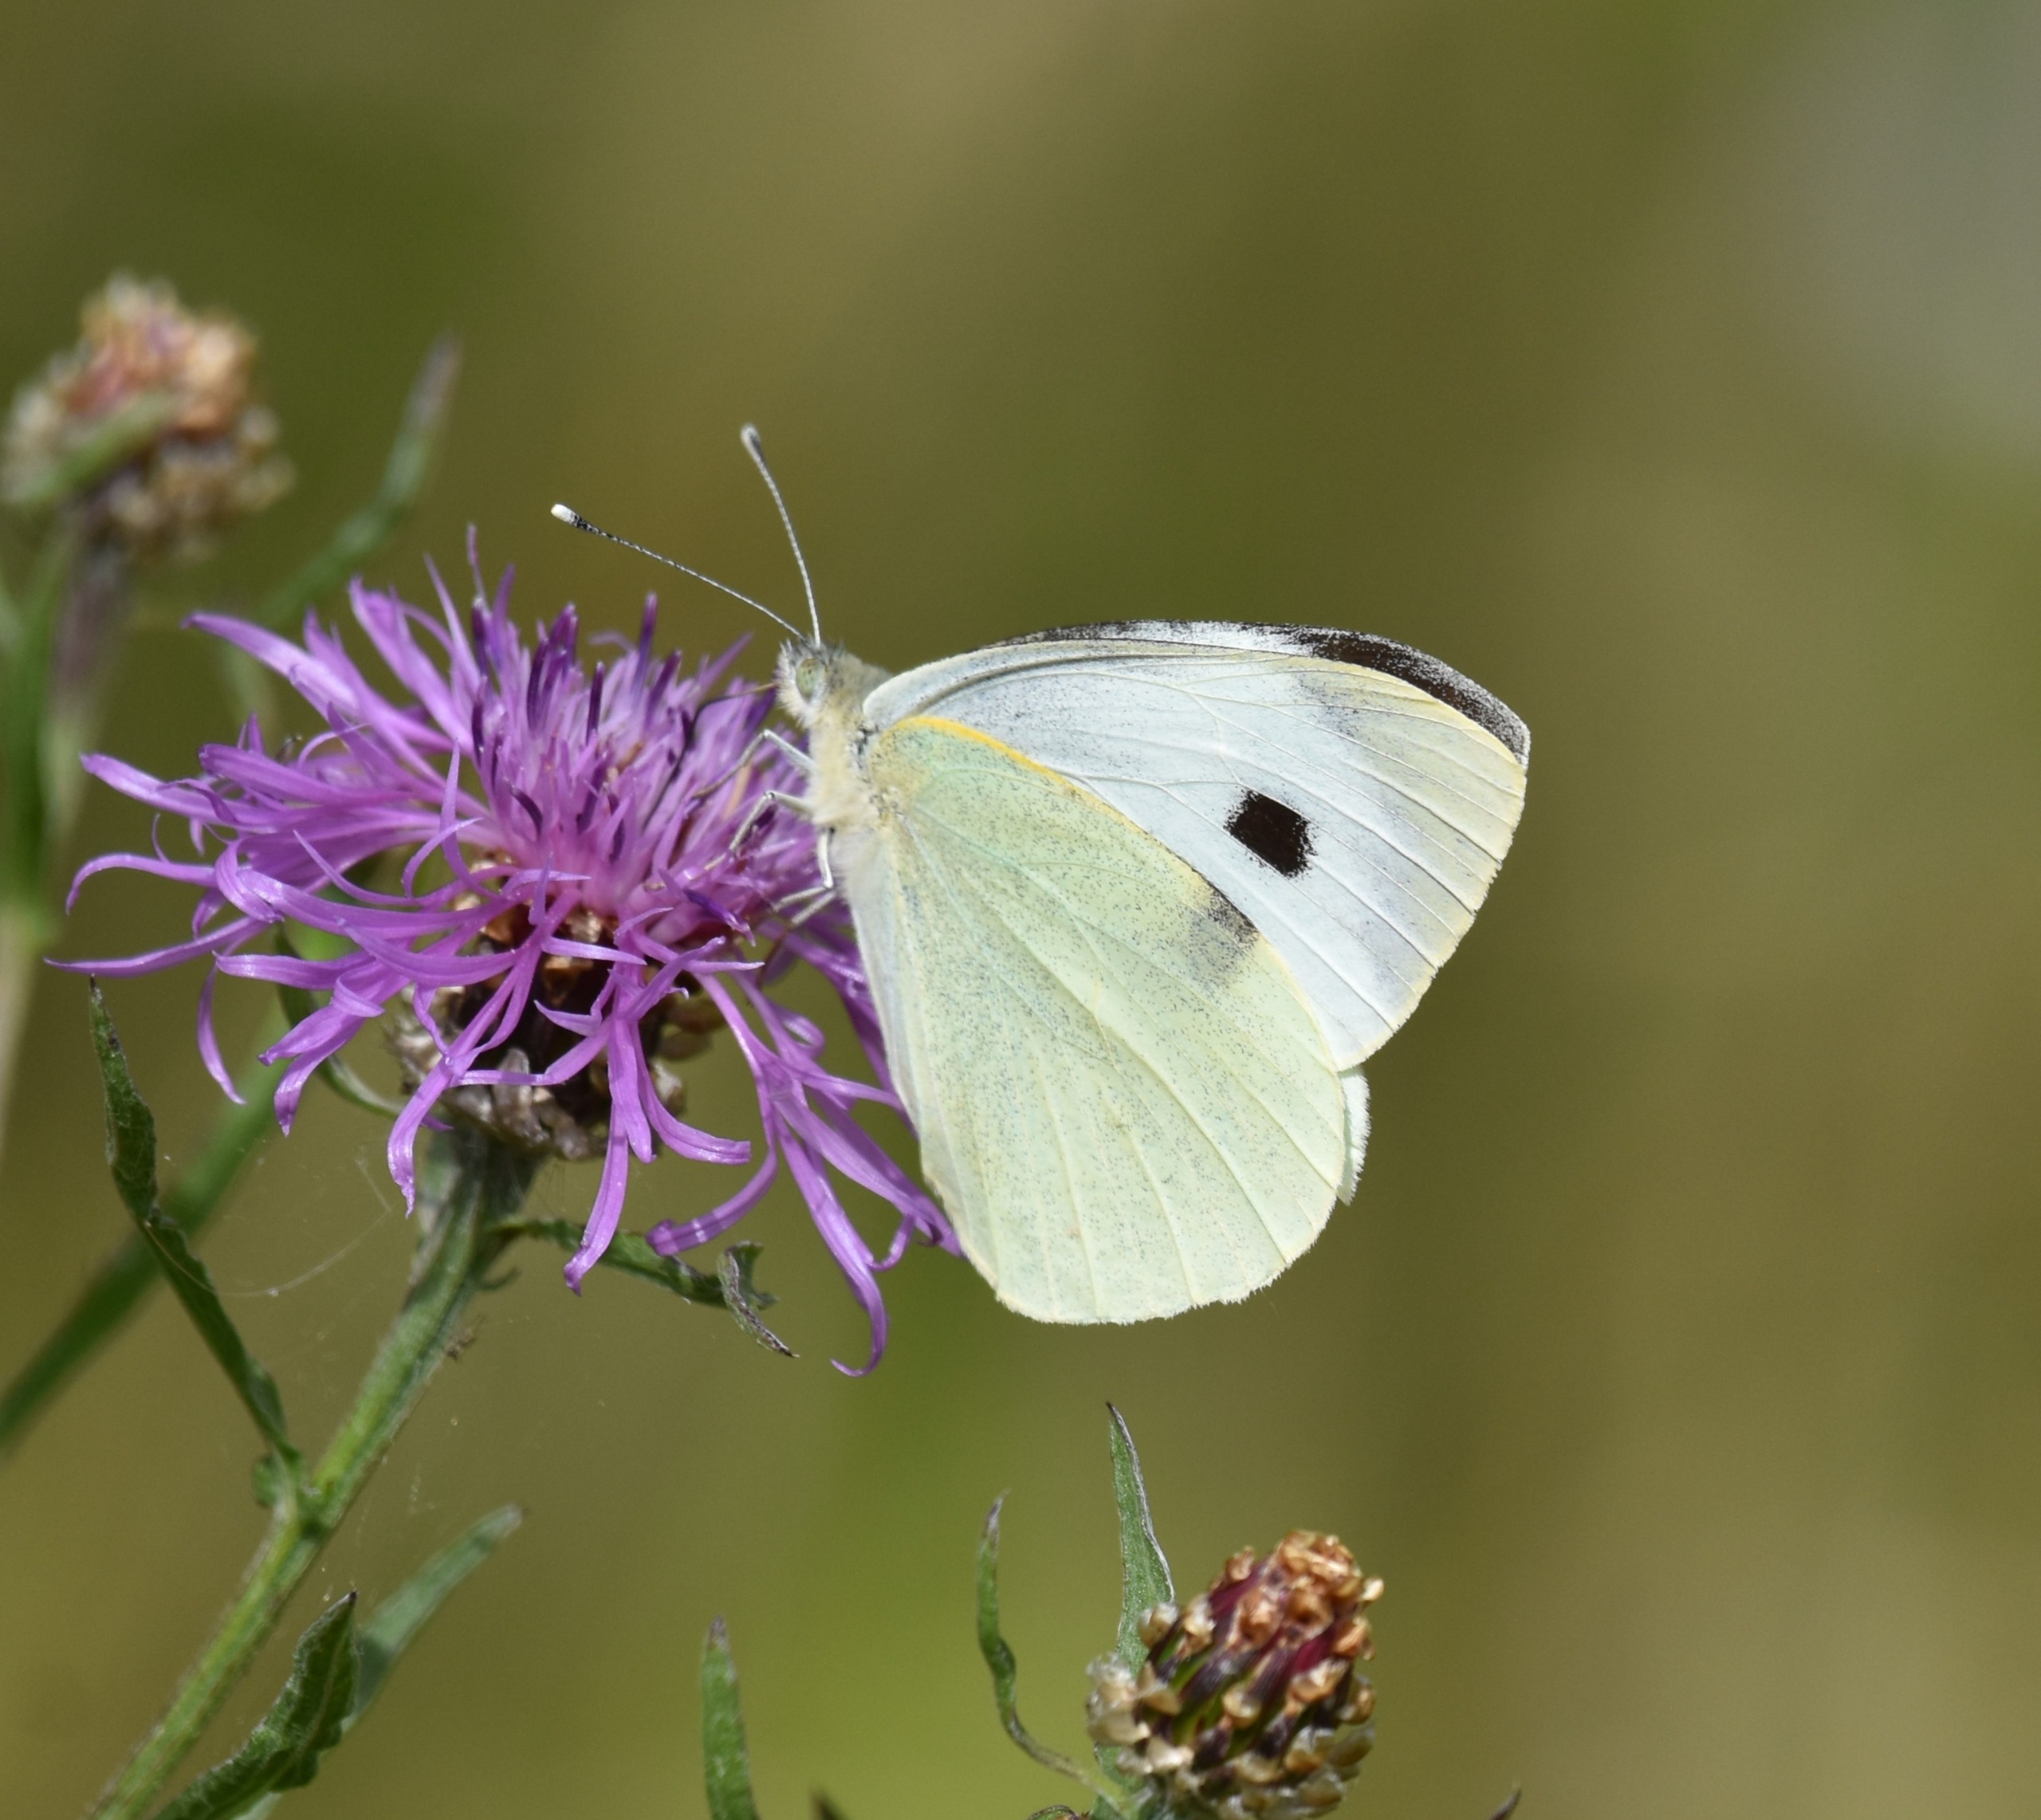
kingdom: Animalia
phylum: Arthropoda
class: Insecta
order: Lepidoptera
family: Pieridae
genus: Pieris
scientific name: Pieris brassicae
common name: Stor kålsommerfugl
